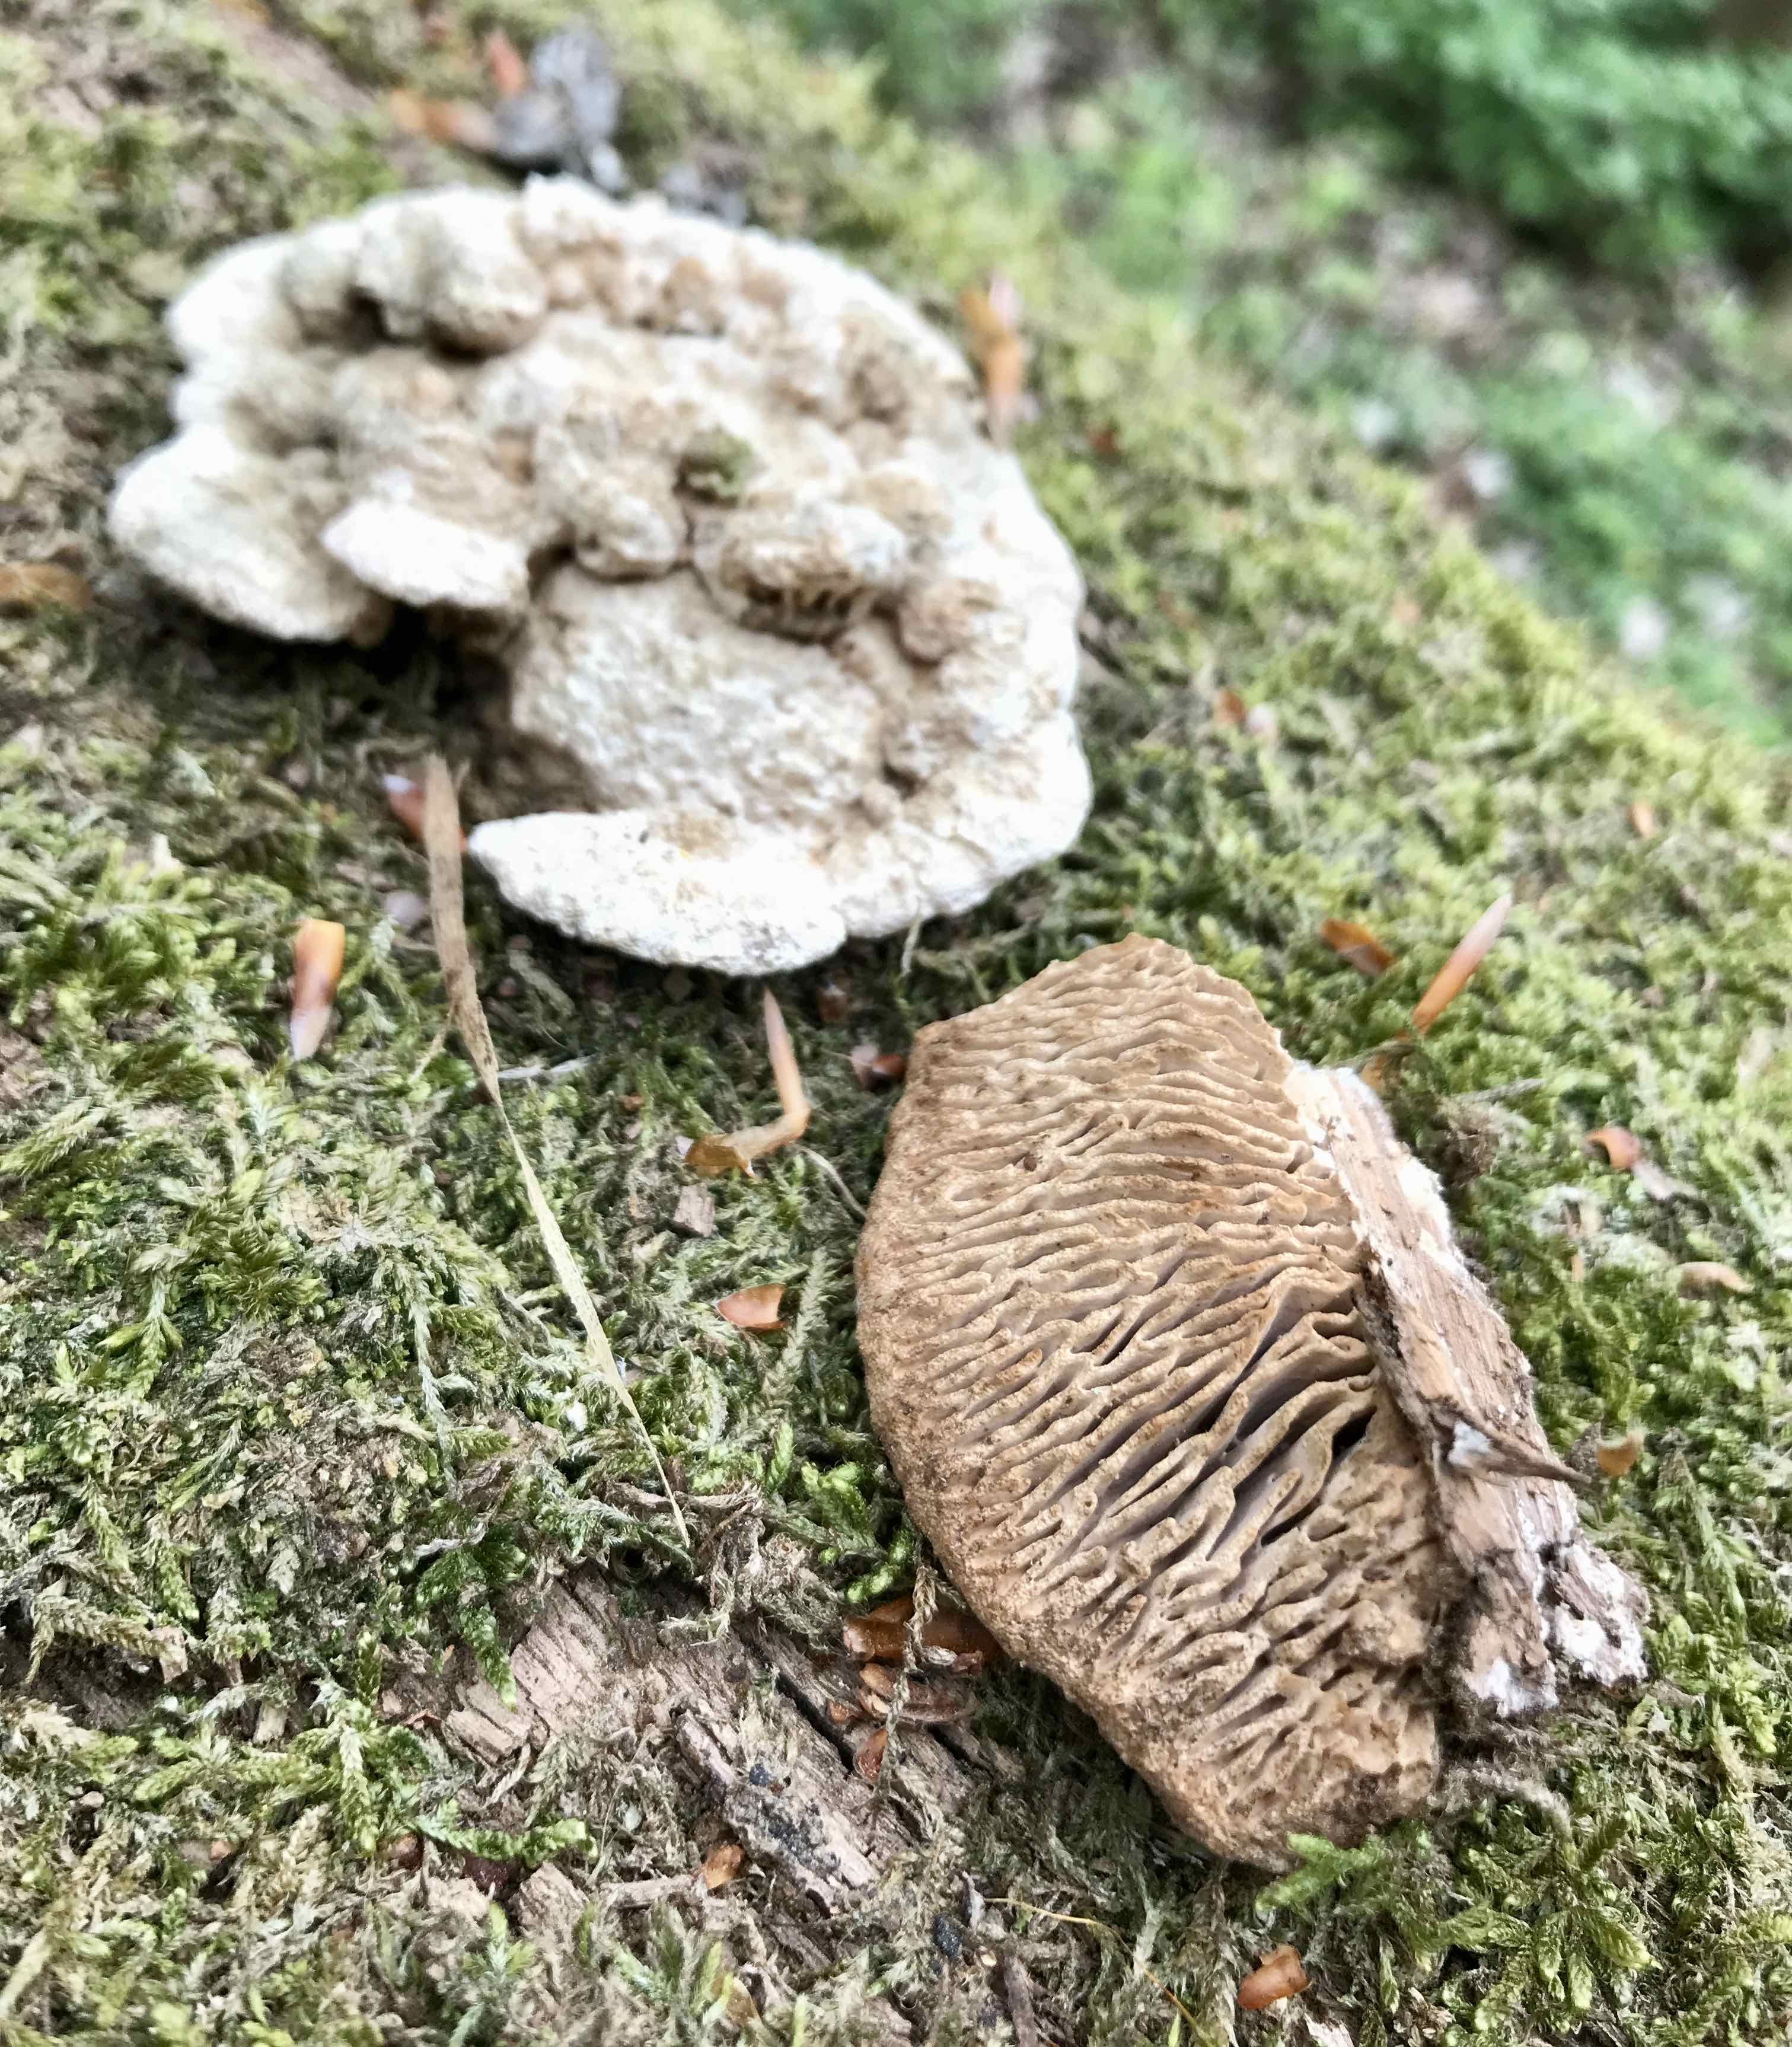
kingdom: Fungi
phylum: Basidiomycota
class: Agaricomycetes
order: Polyporales
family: Fomitopsidaceae
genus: Daedalea
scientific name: Daedalea quercina
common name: ege-labyrintsvamp
